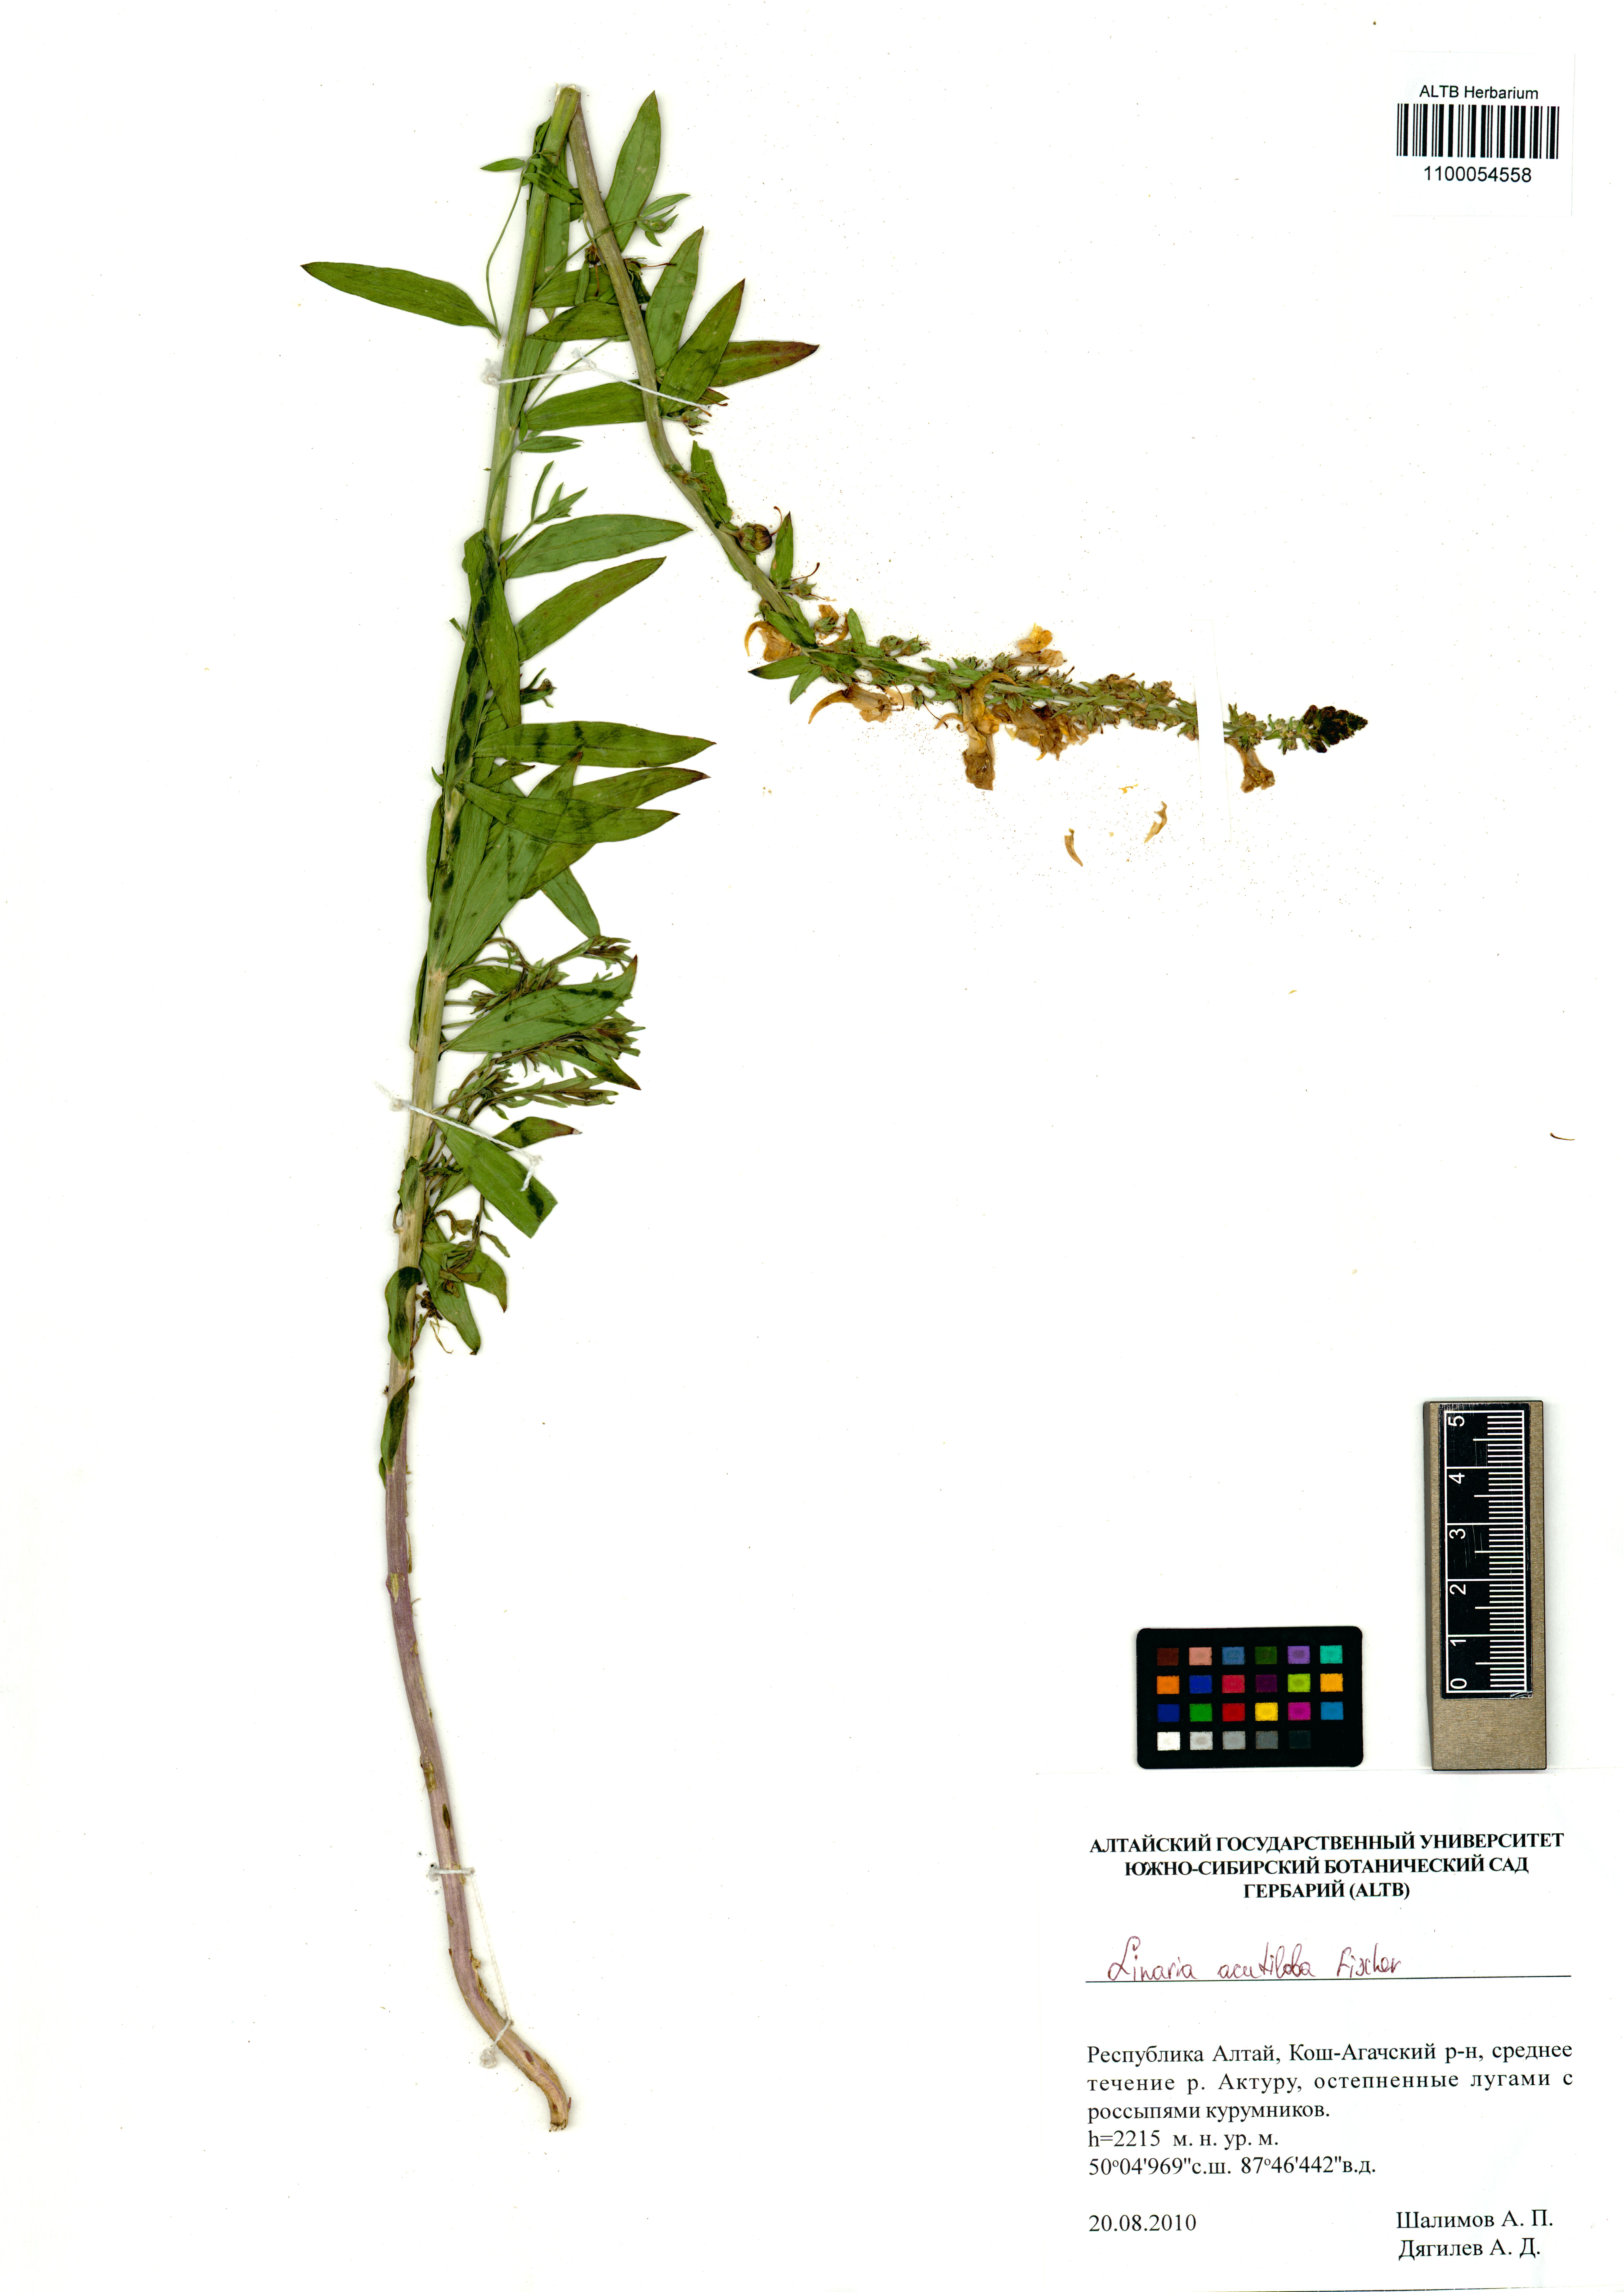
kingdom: Plantae
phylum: Tracheophyta
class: Magnoliopsida
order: Lamiales
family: Plantaginaceae
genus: Linaria
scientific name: Linaria acutiloba
